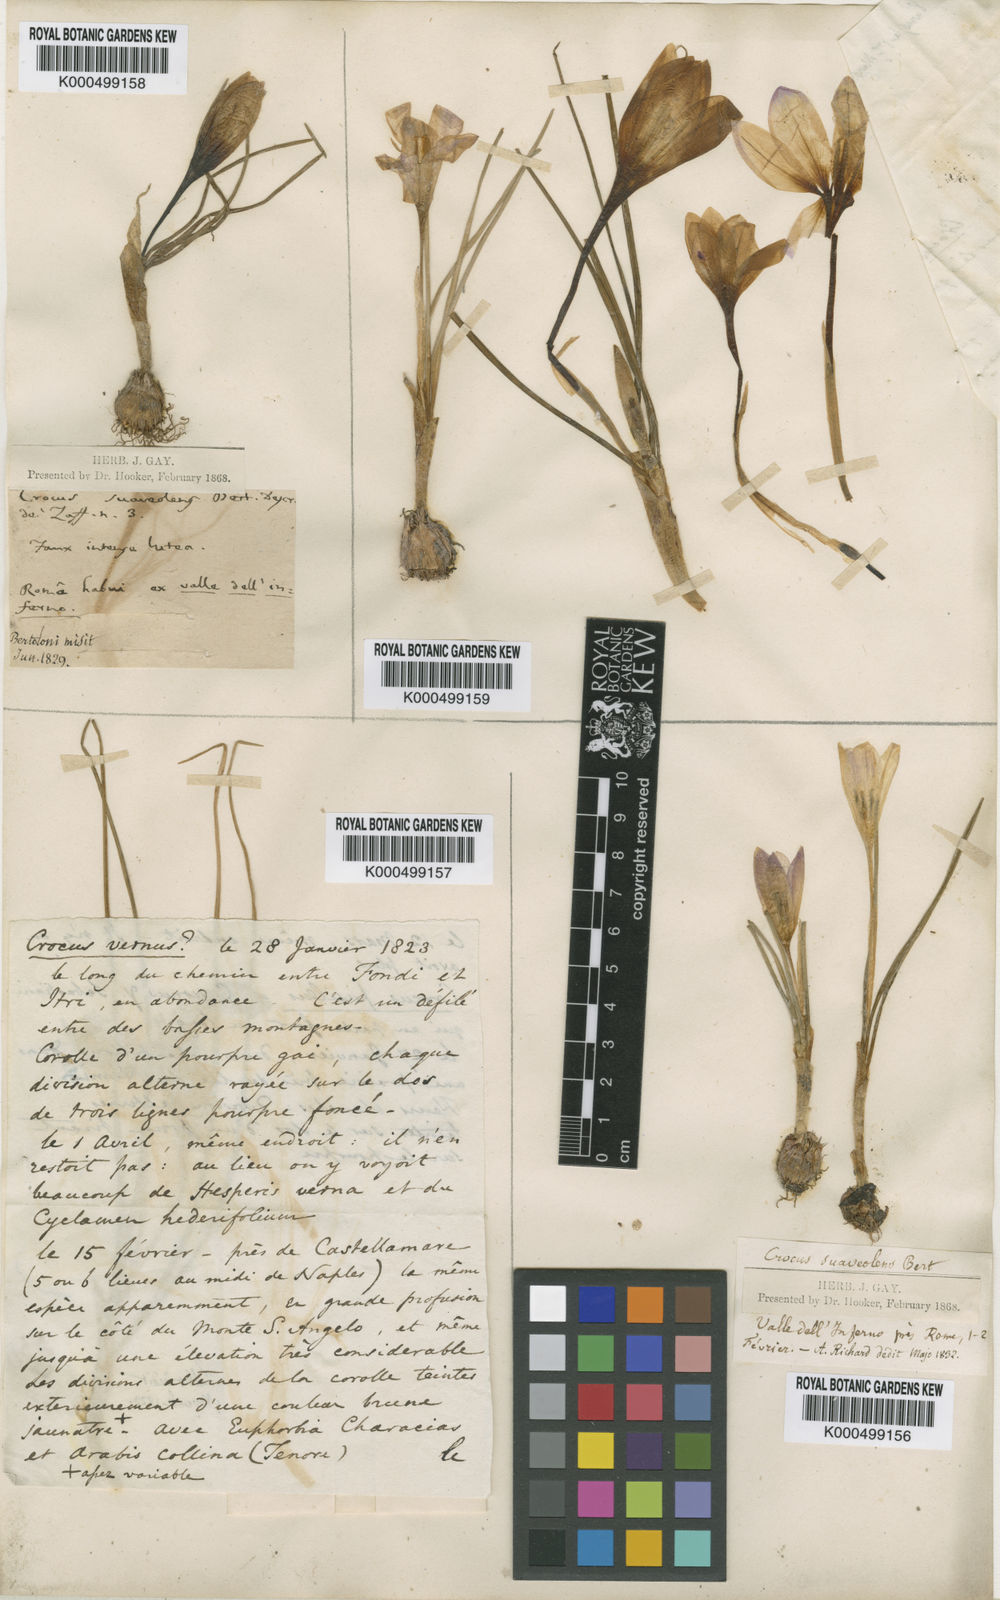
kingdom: Plantae
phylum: Tracheophyta
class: Liliopsida
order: Asparagales
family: Iridaceae
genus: Crocus
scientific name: Crocus suaveolens
